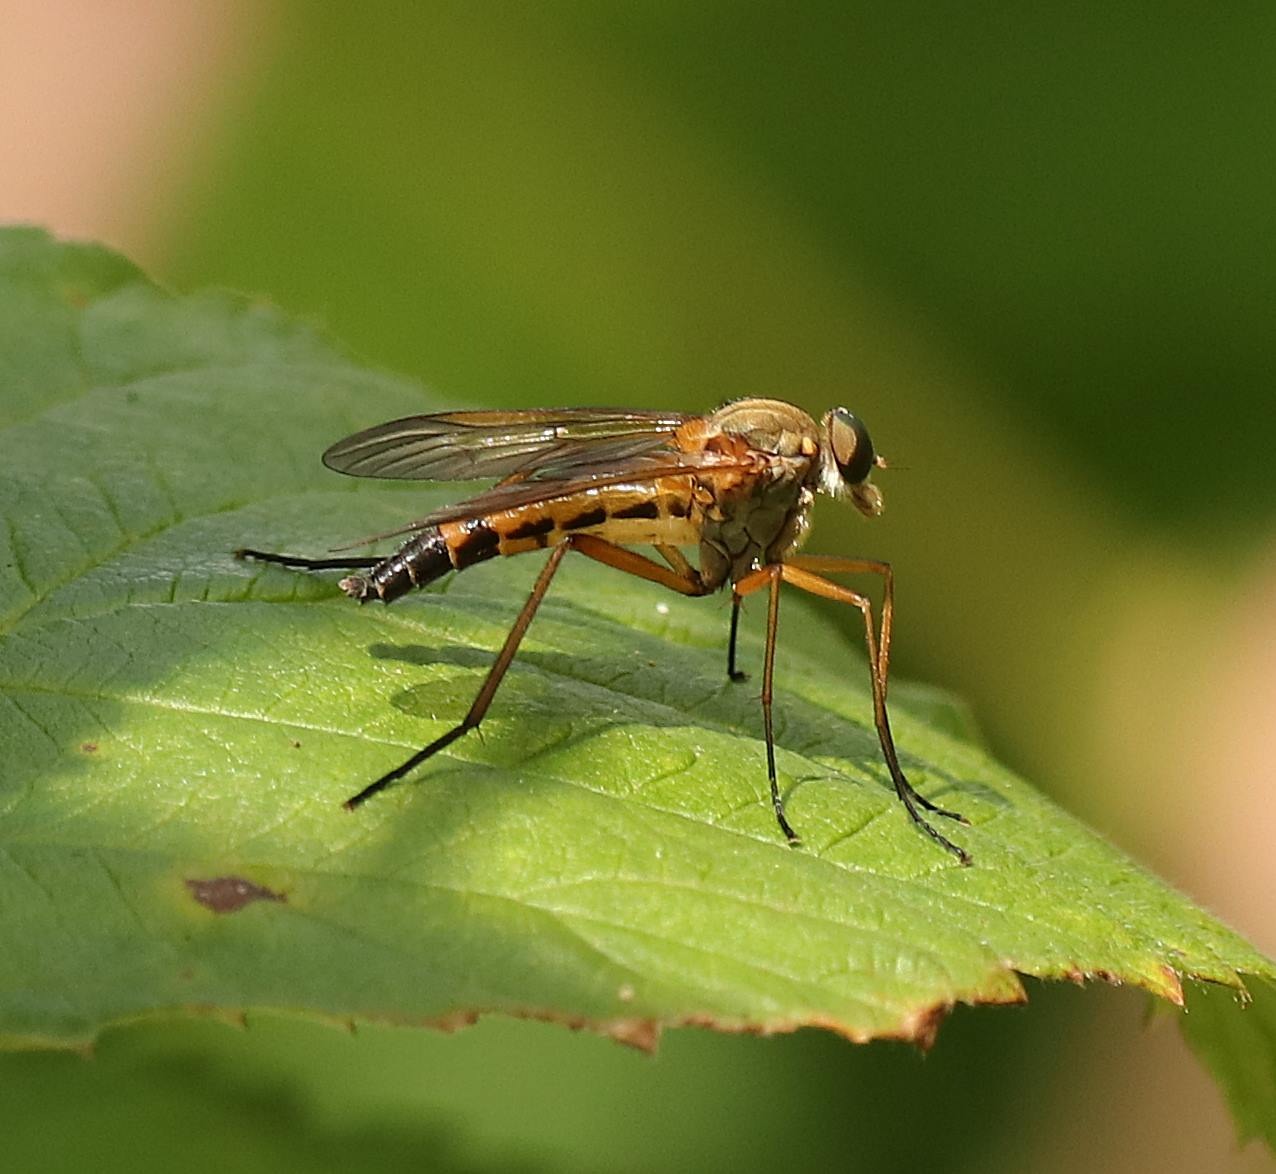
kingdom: Animalia
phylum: Arthropoda
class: Insecta
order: Diptera
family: Rhagionidae
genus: Rhagio
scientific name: Rhagio tringaria
